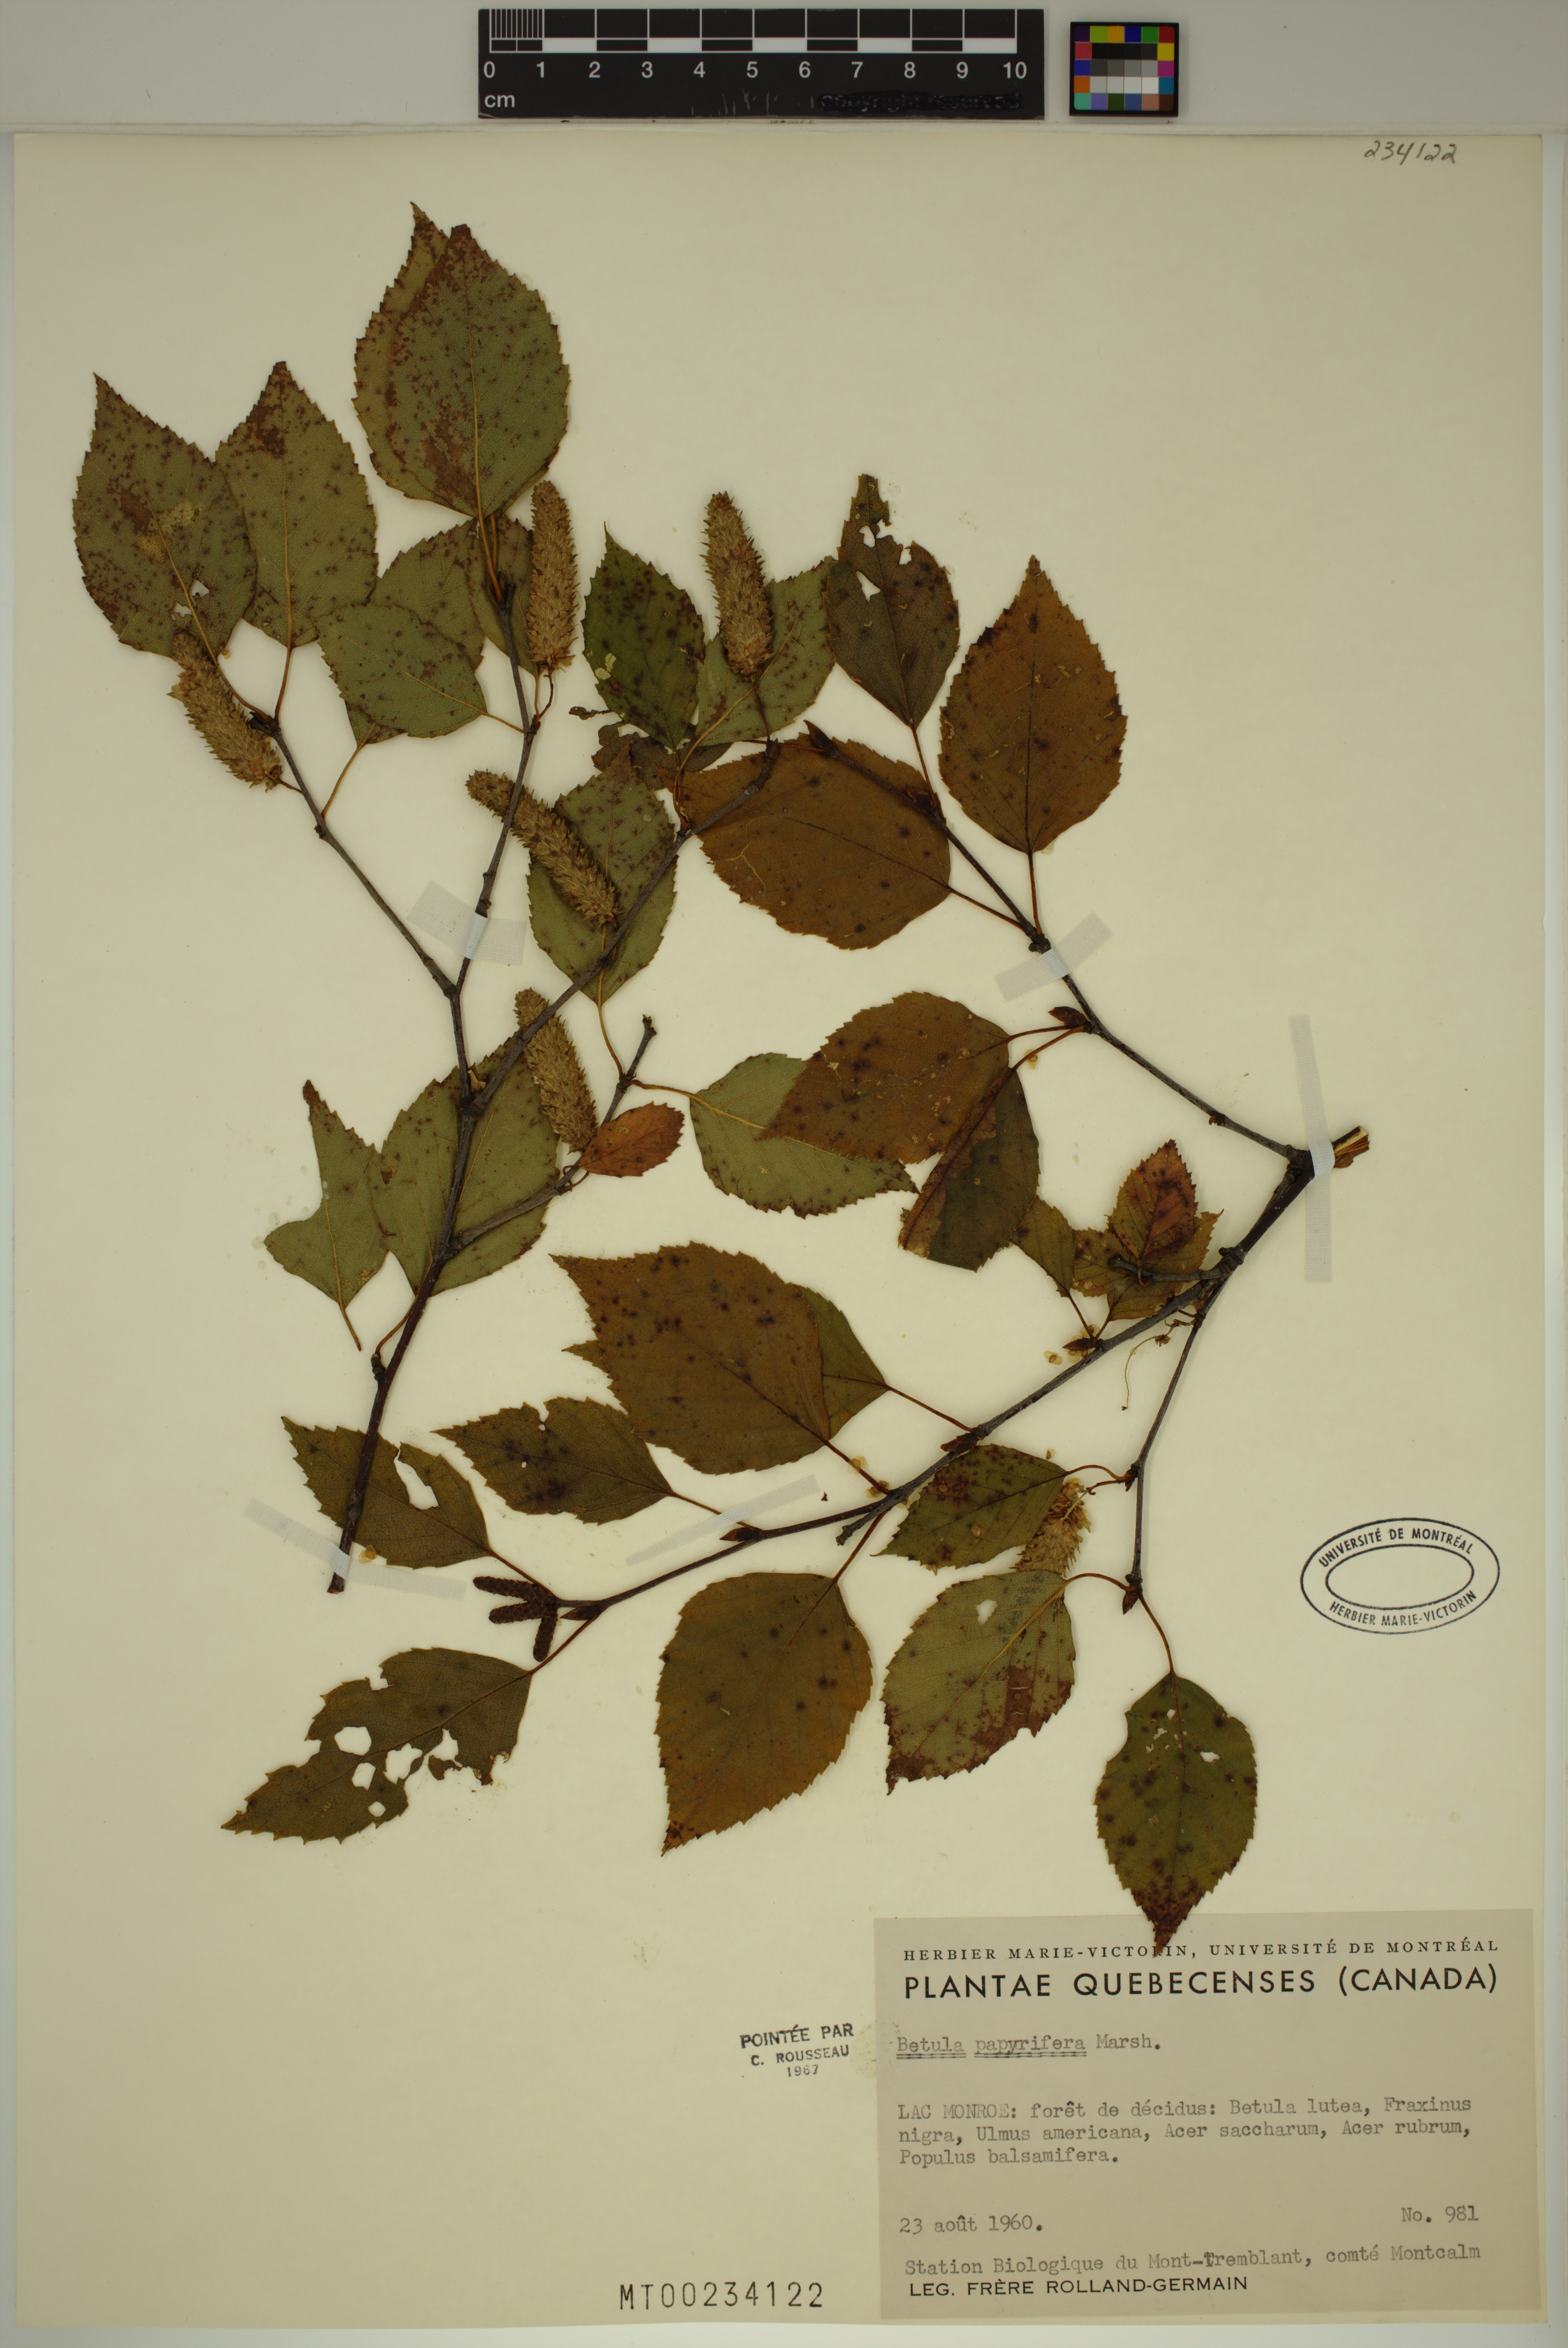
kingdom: Plantae
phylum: Tracheophyta
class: Magnoliopsida
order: Fagales
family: Betulaceae
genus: Betula
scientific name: Betula papyrifera
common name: Paper birch
